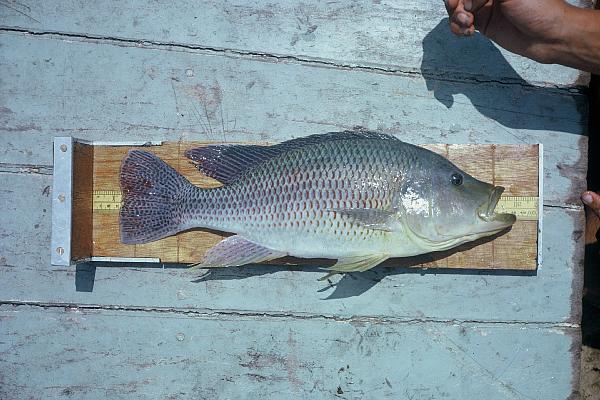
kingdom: Animalia
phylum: Chordata
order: Perciformes
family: Cichlidae
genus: Serranochromis
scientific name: Serranochromis thumbergi
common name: Brownspot largemouth
